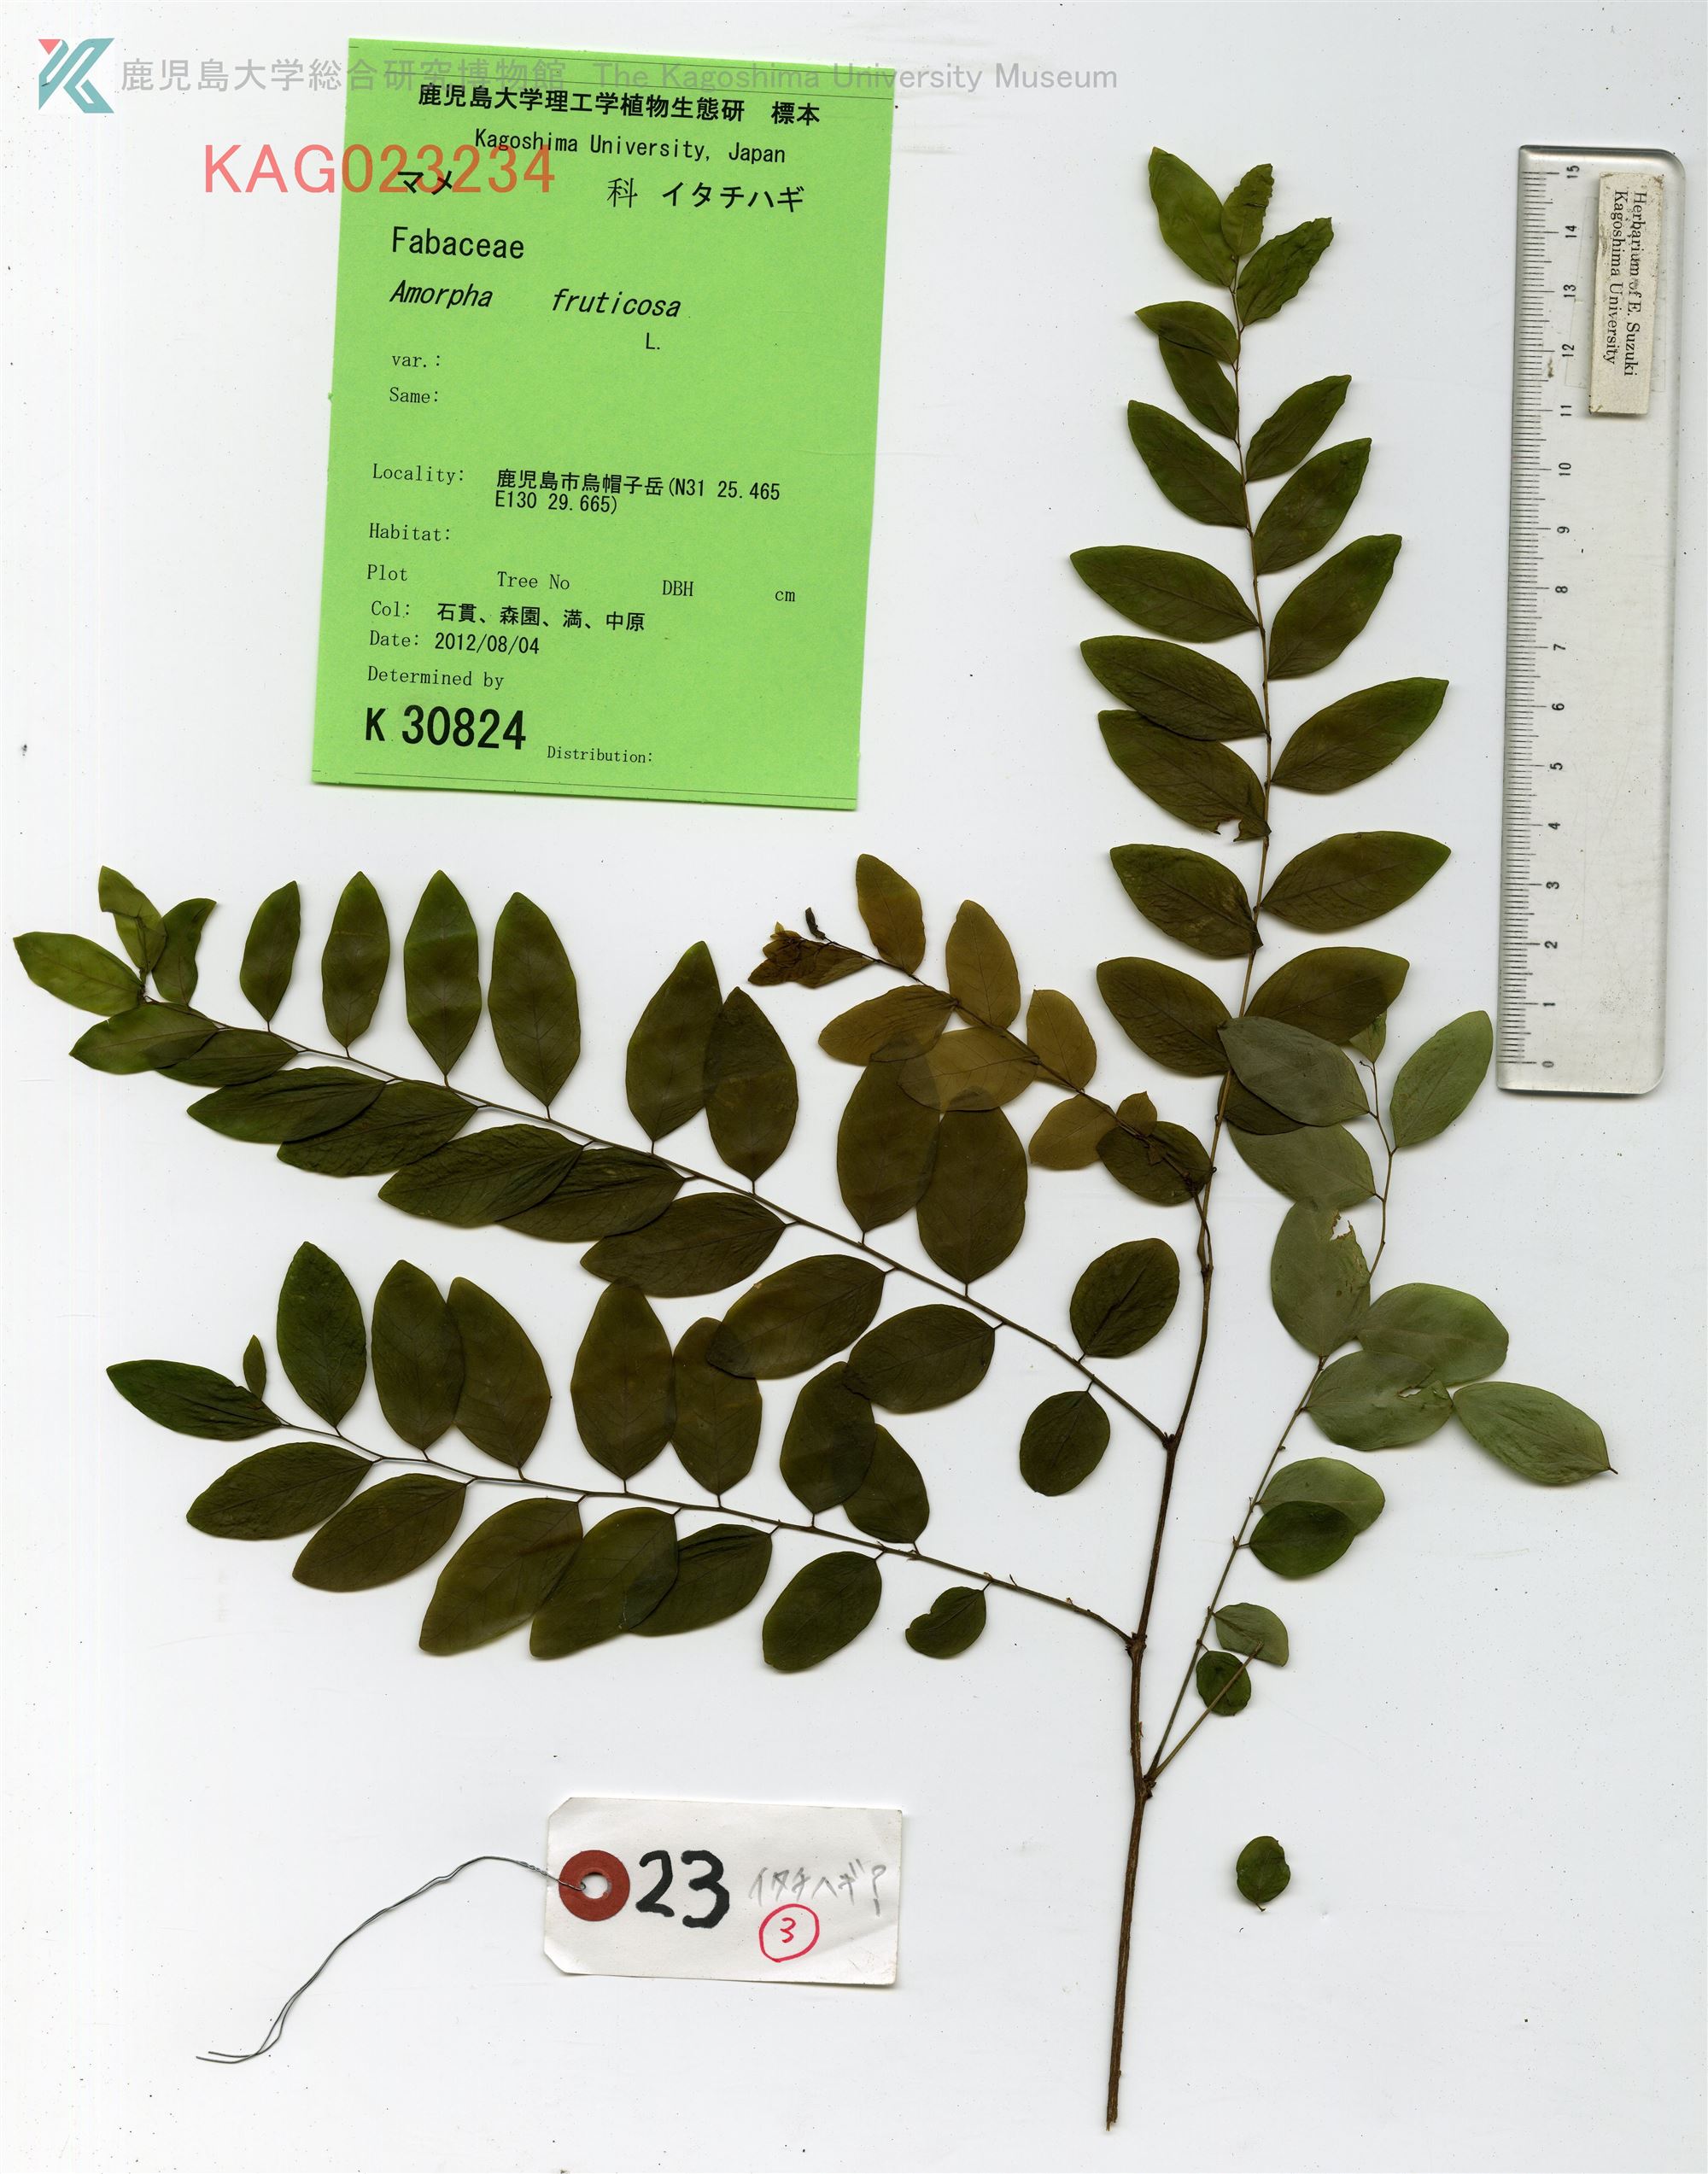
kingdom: Plantae
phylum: Tracheophyta
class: Magnoliopsida
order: Fabales
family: Fabaceae
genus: Amorpha
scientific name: Amorpha fruticosa
